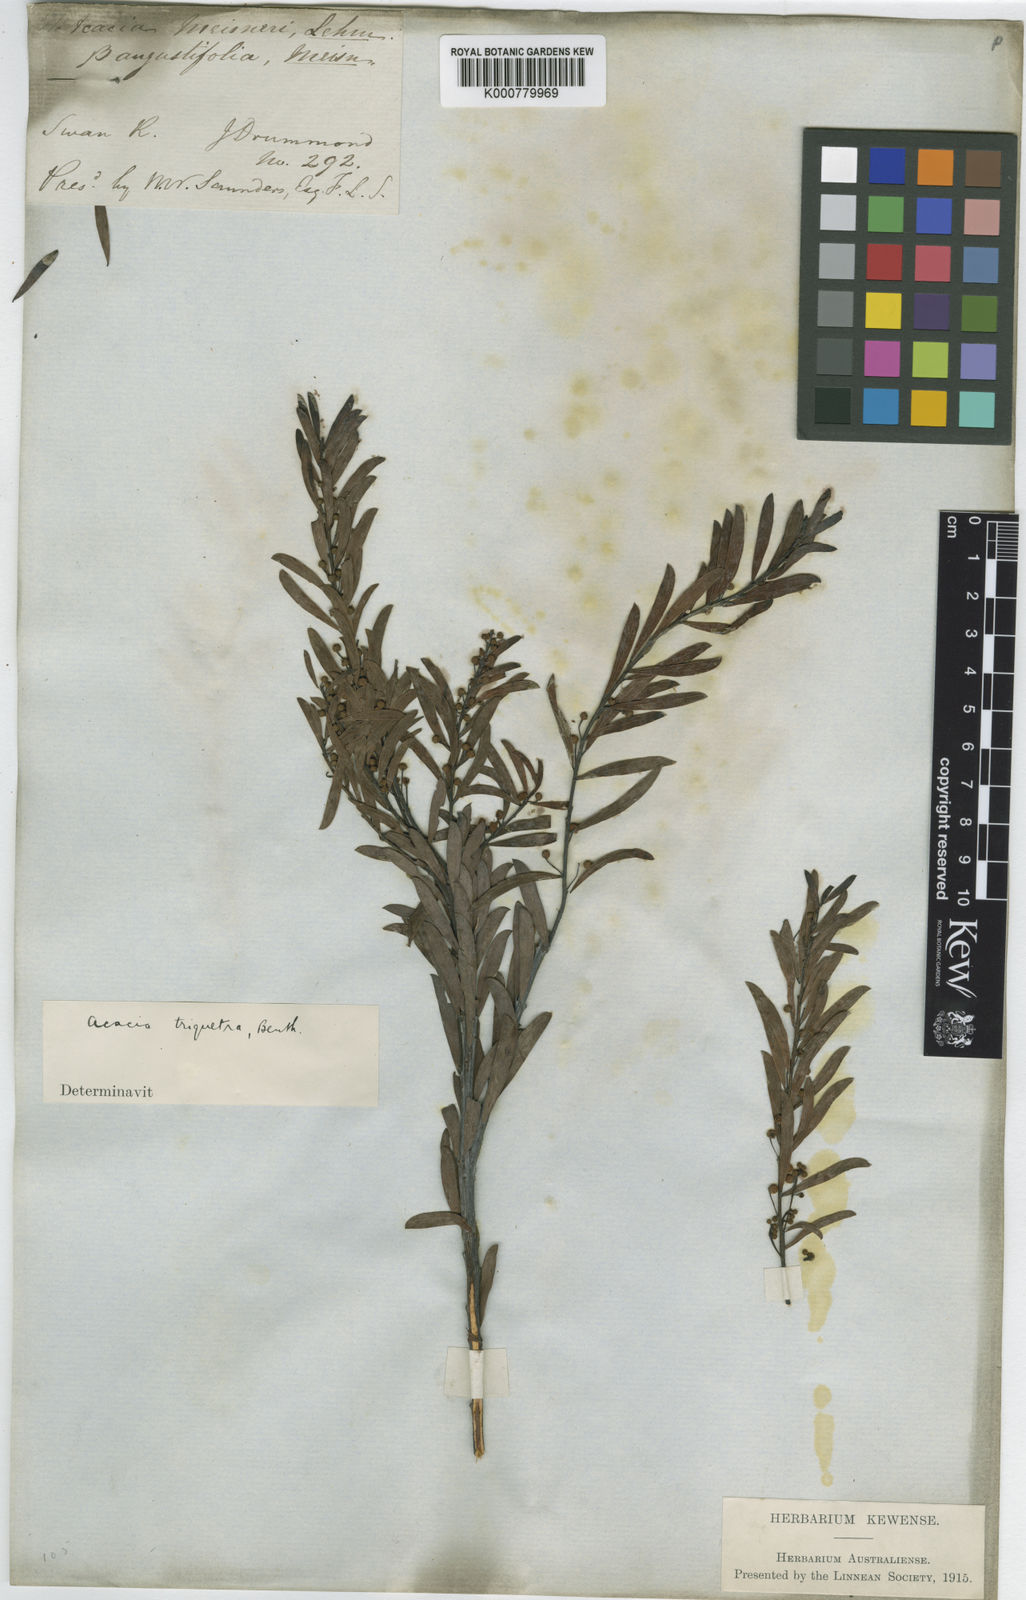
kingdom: Plantae
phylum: Tracheophyta
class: Magnoliopsida
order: Fabales
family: Fabaceae
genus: Acacia
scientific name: Acacia leptopetala
